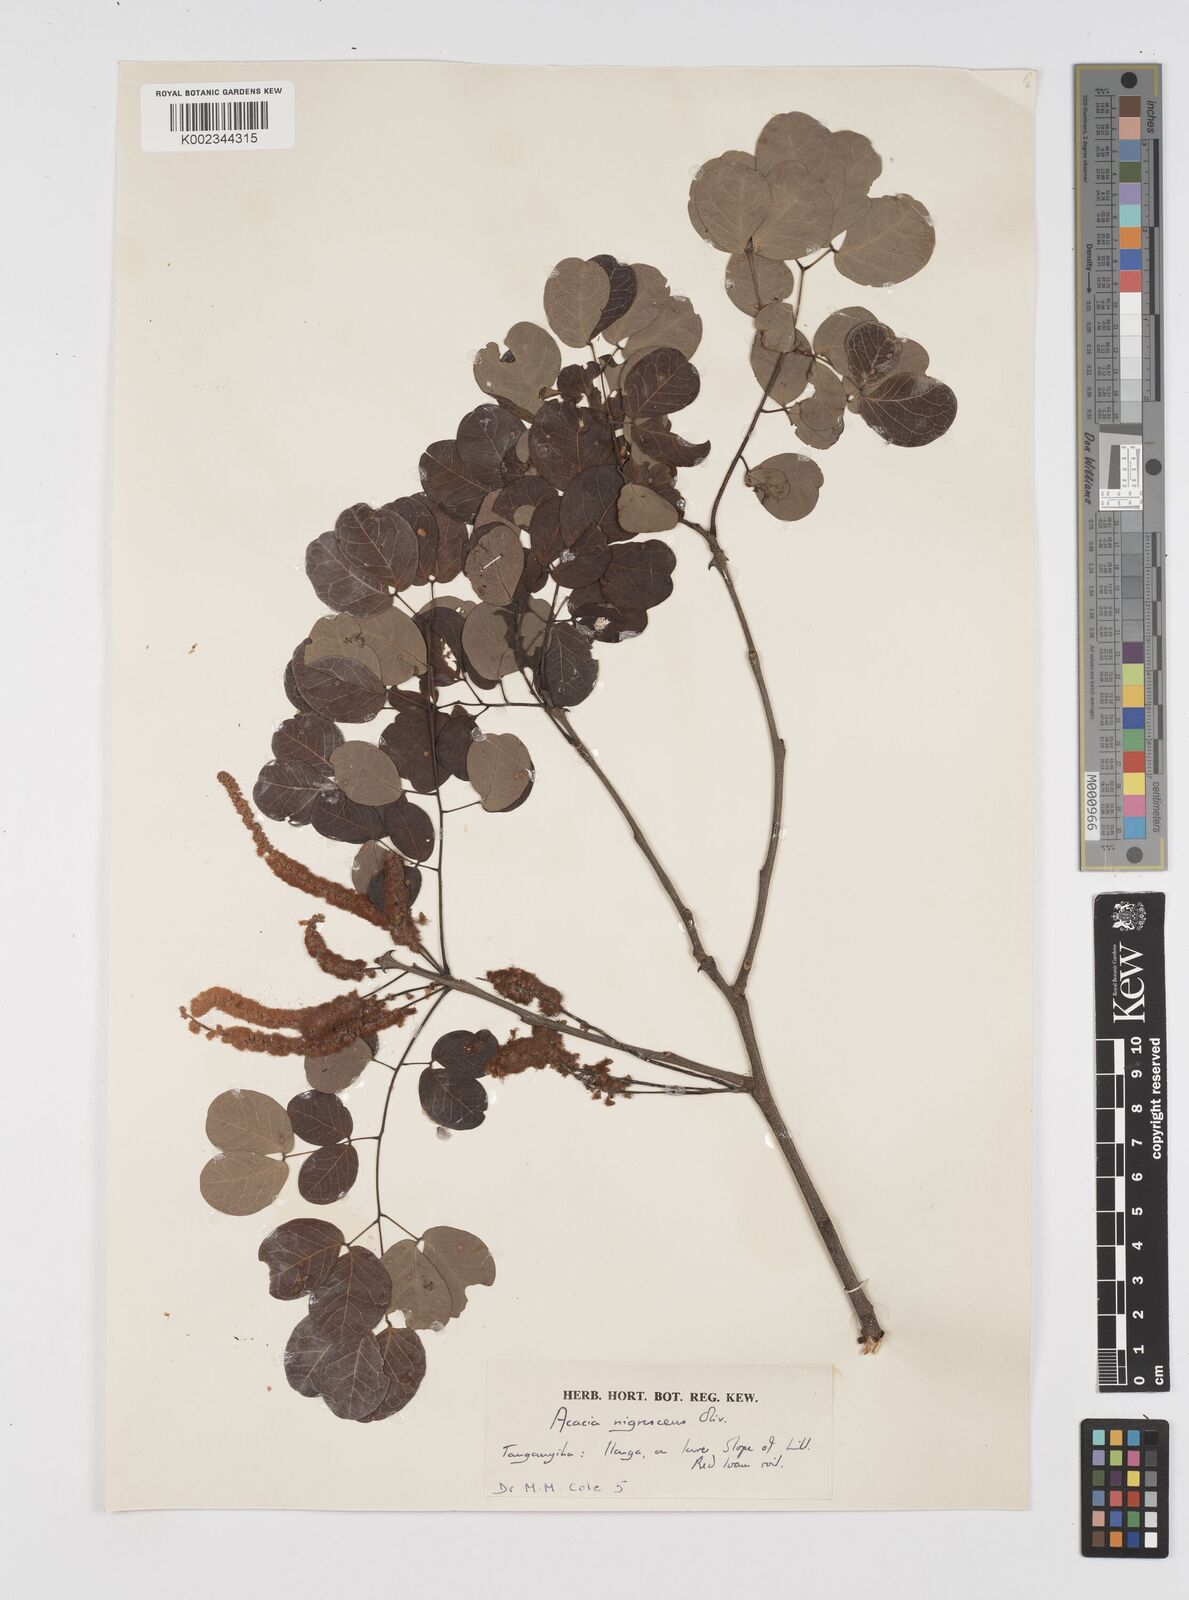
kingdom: Plantae
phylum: Tracheophyta
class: Magnoliopsida
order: Fabales
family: Fabaceae
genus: Senegalia
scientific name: Senegalia nigrescens
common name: Knobthorn
